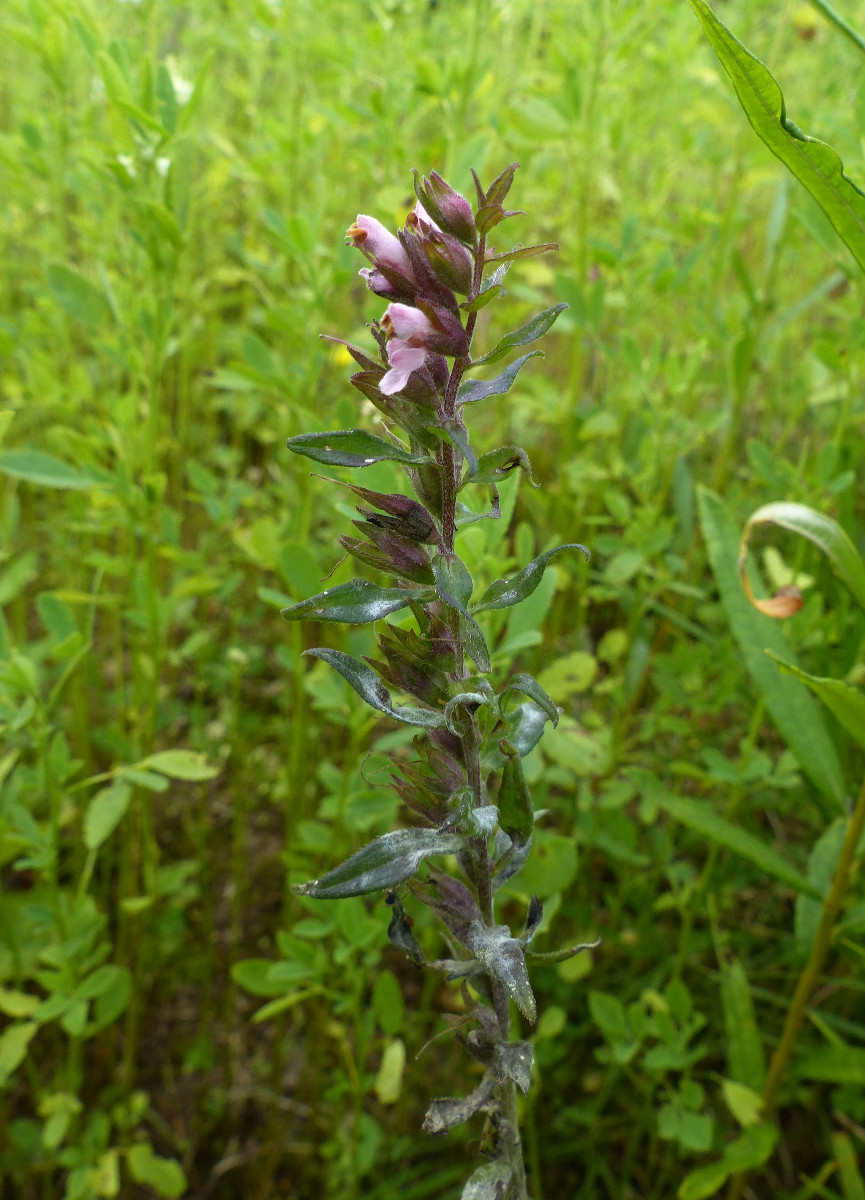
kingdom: Fungi
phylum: Ascomycota
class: Leotiomycetes
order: Helotiales
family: Erysiphaceae
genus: Podosphaera
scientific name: Podosphaera phtheirospermi
